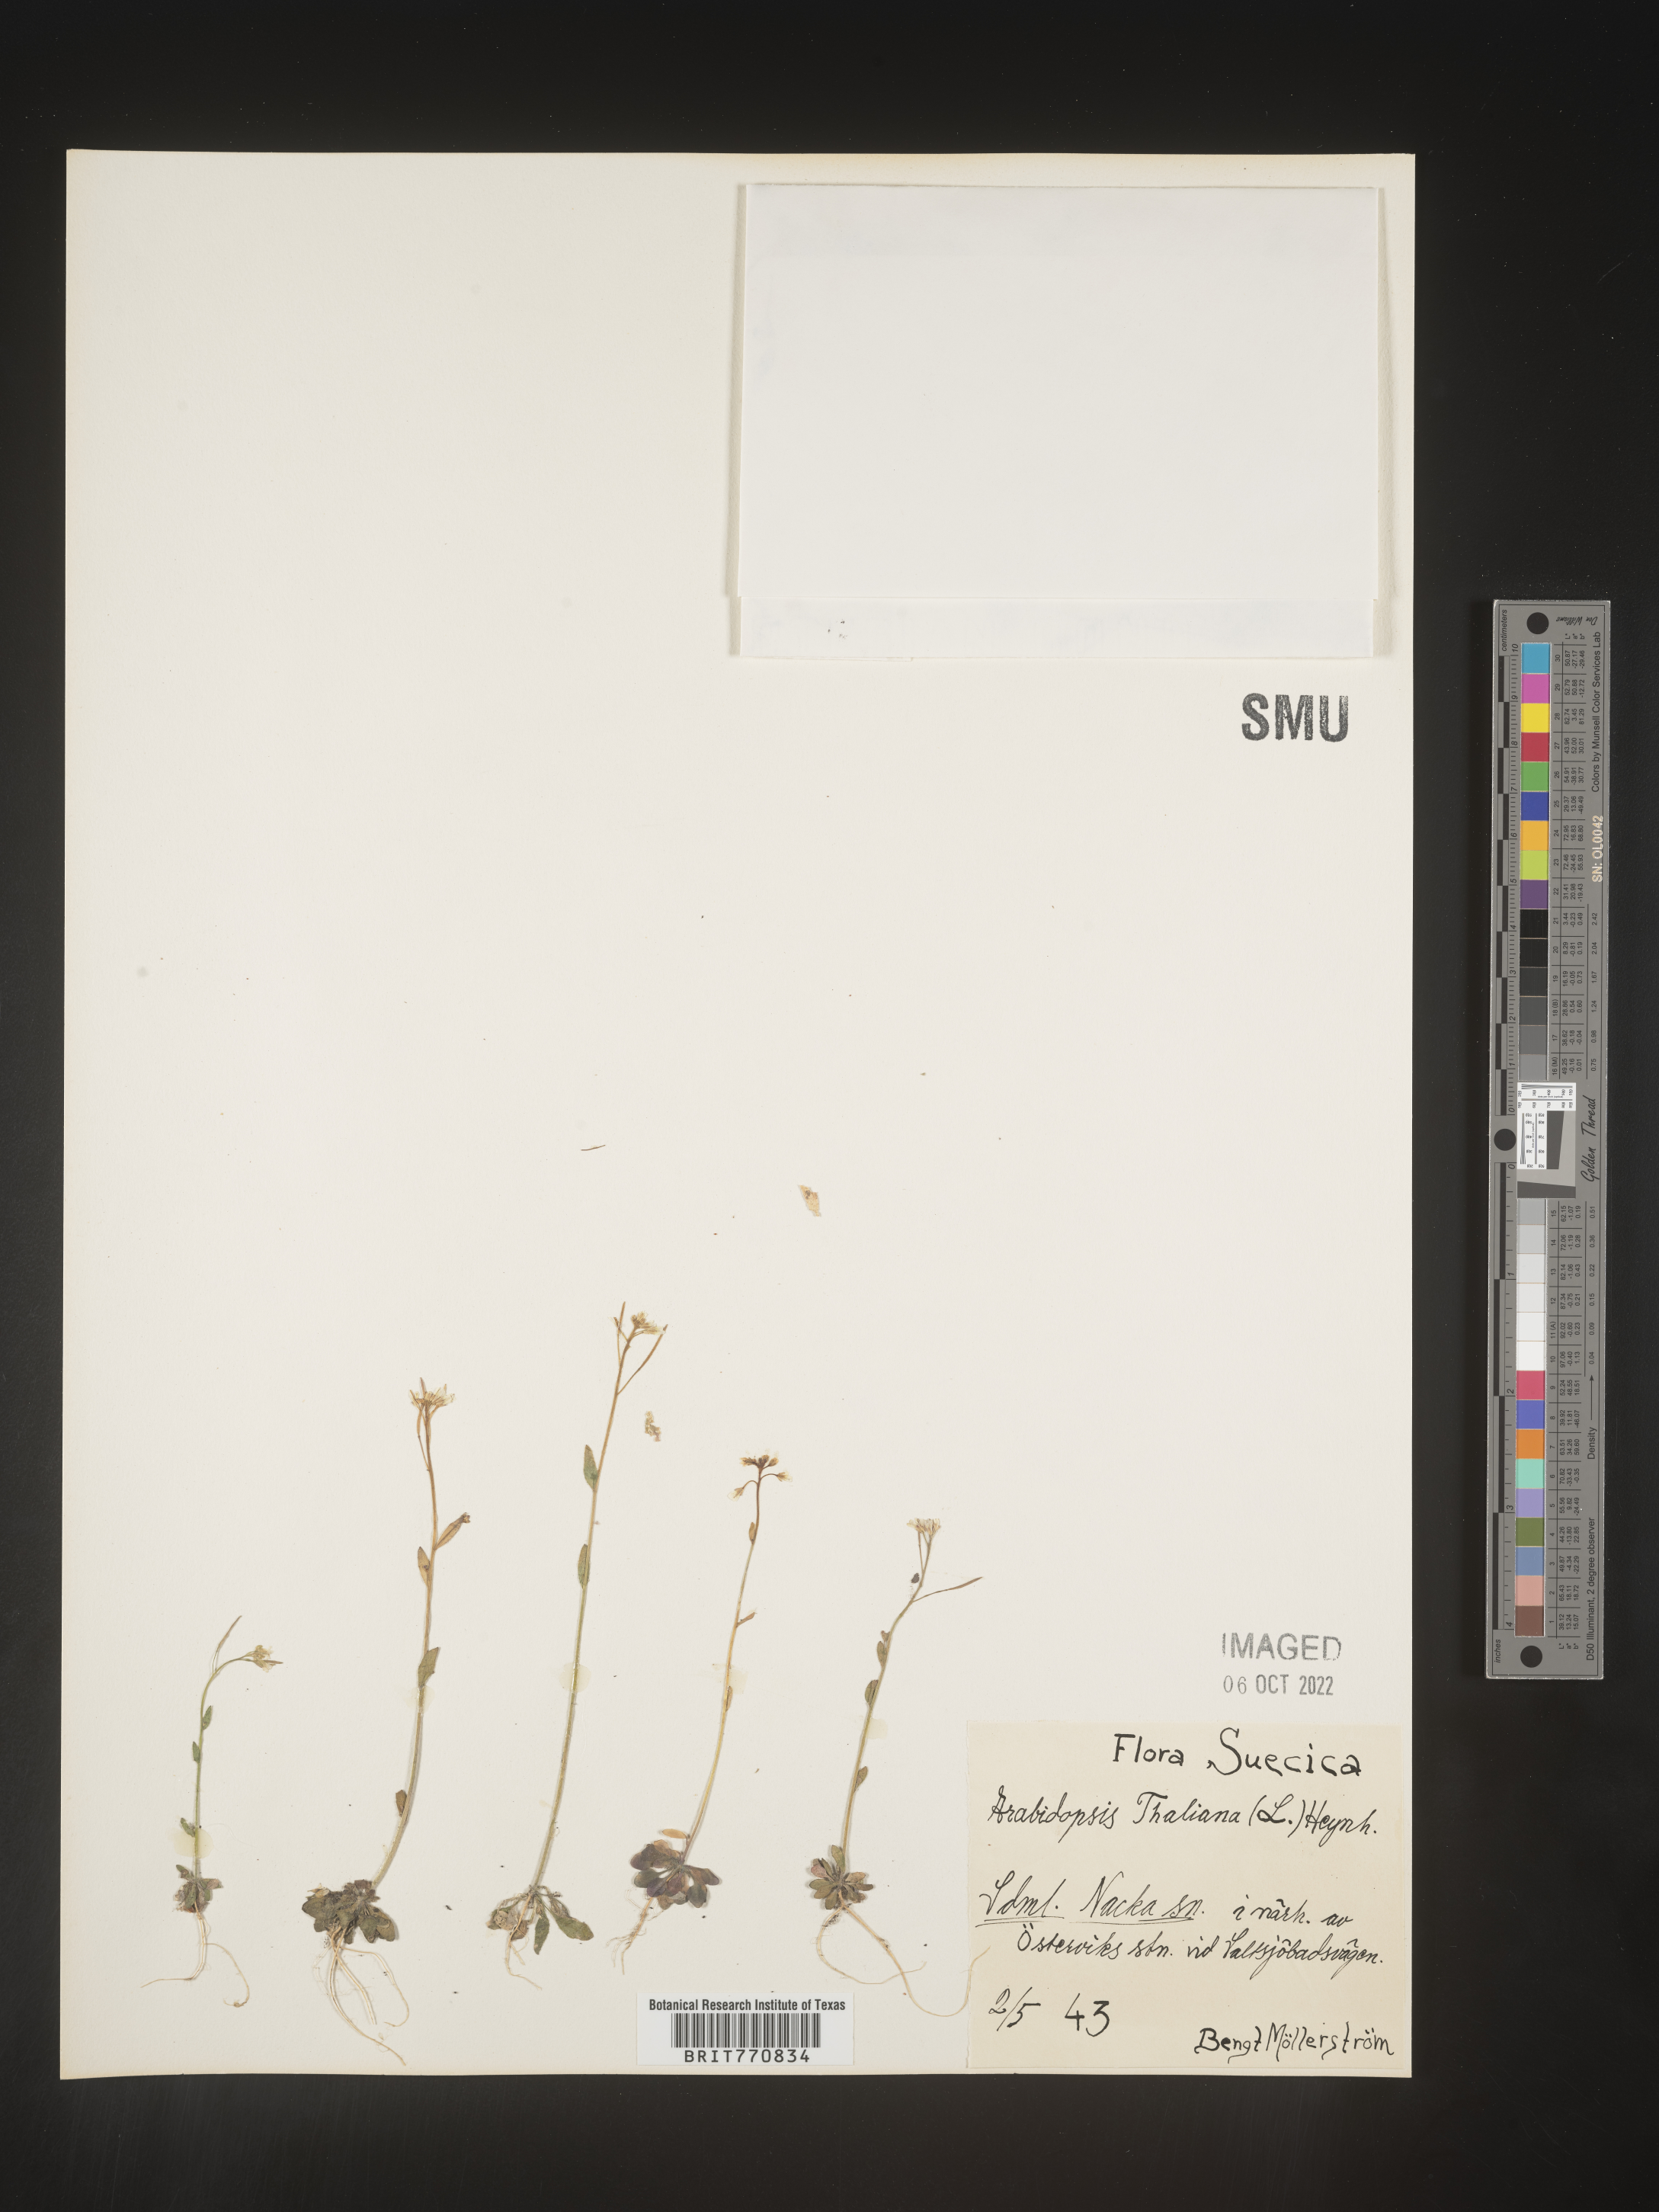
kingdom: Plantae
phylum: Tracheophyta
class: Magnoliopsida
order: Brassicales
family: Brassicaceae
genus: Arabidopsis
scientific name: Arabidopsis
